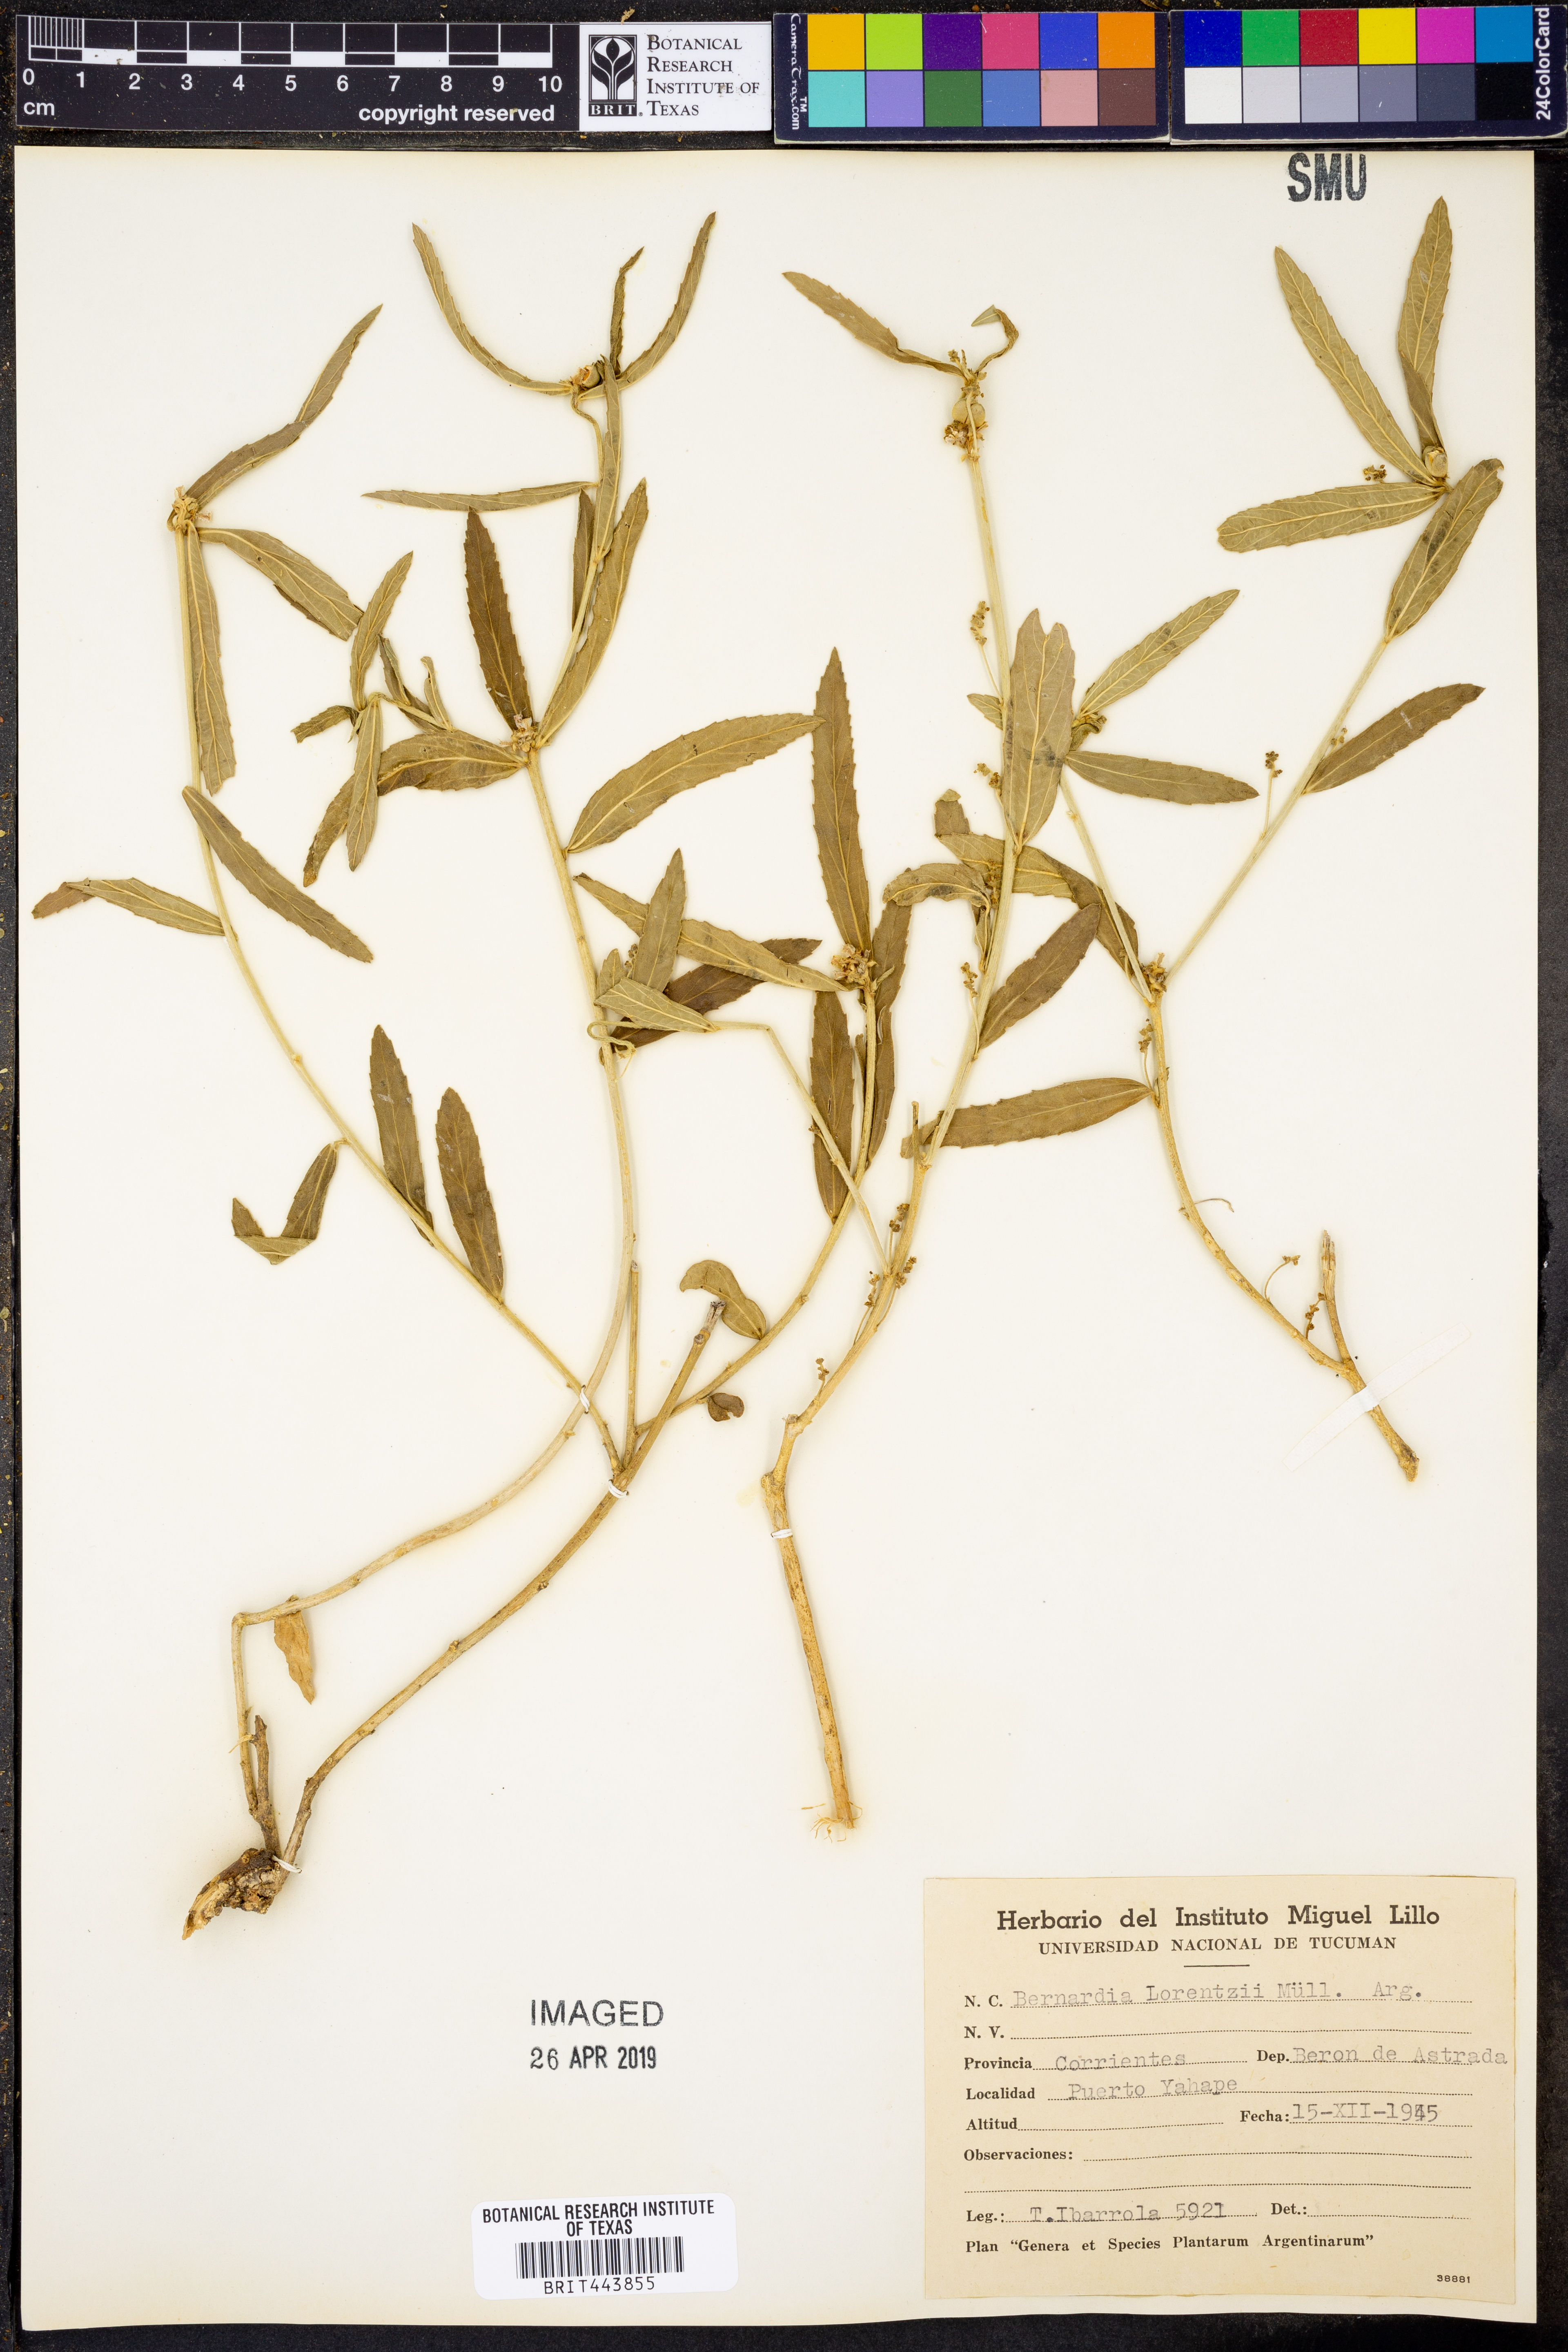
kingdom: Plantae
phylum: Tracheophyta
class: Magnoliopsida
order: Malpighiales
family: Euphorbiaceae
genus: Bernardia
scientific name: Bernardia multicaulis
